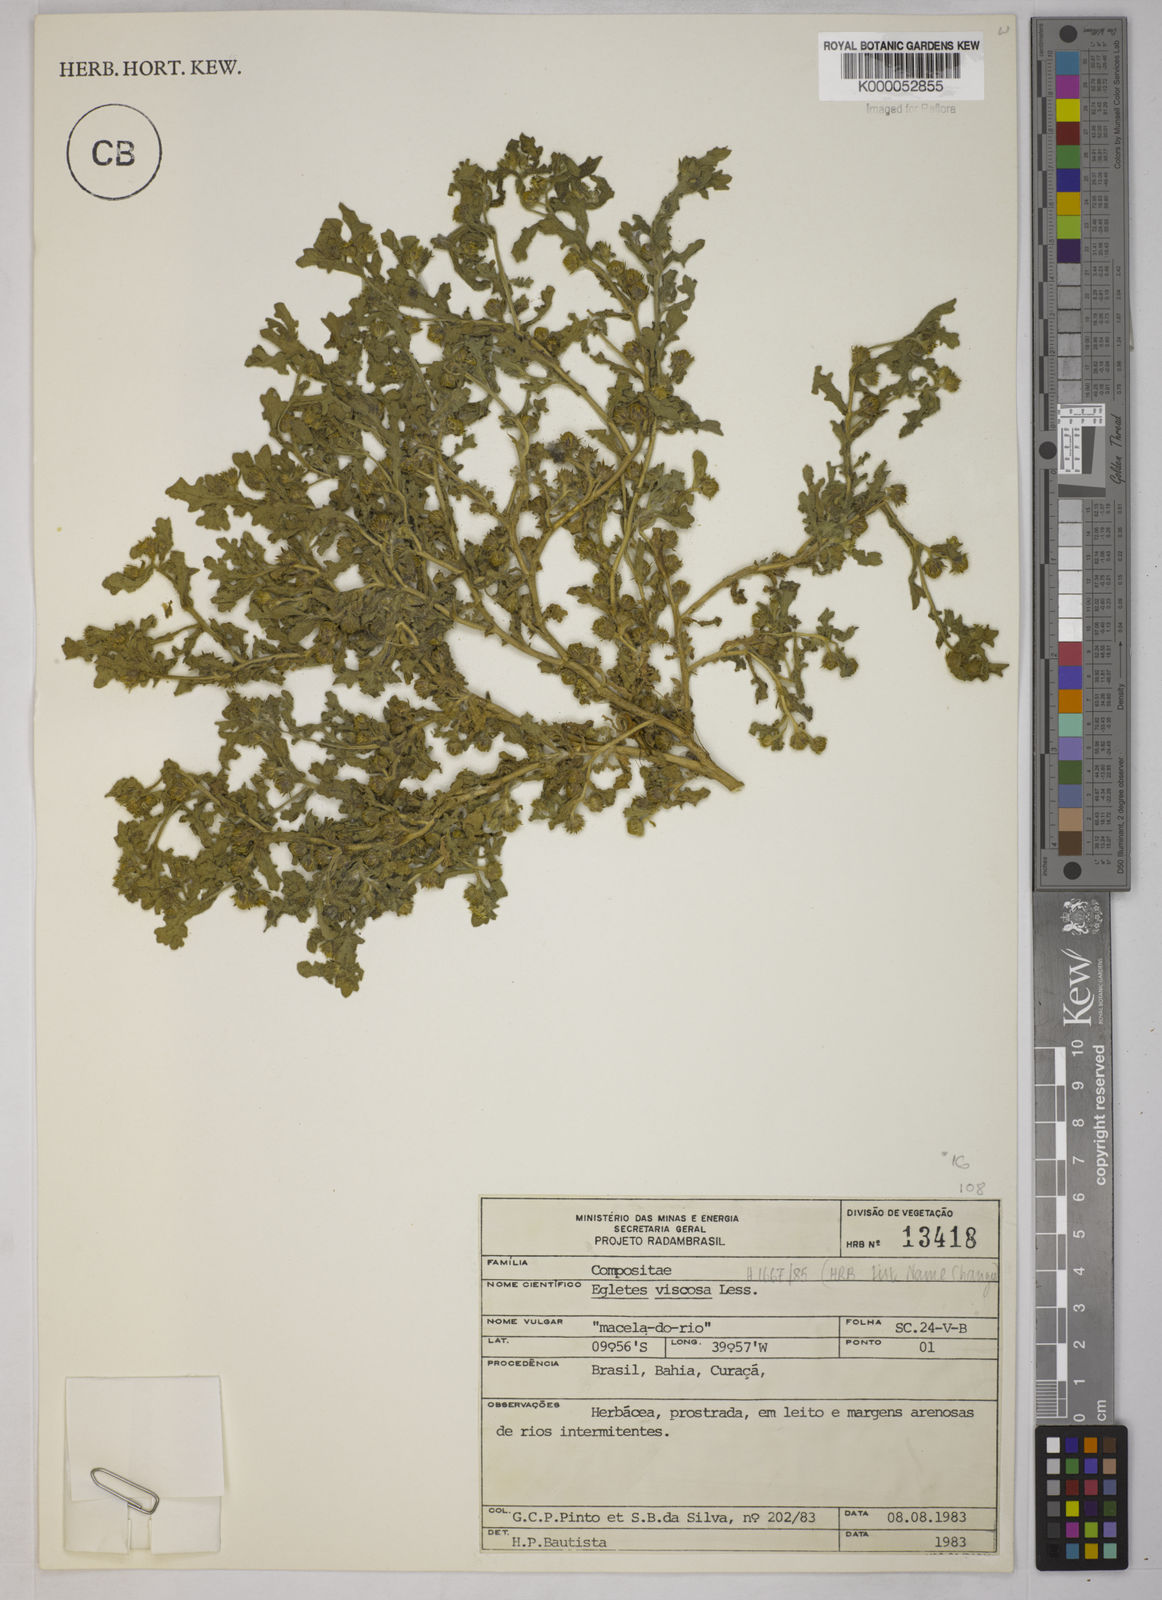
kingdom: Plantae
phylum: Tracheophyta
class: Magnoliopsida
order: Asterales
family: Asteraceae
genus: Egletes
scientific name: Egletes viscosa
